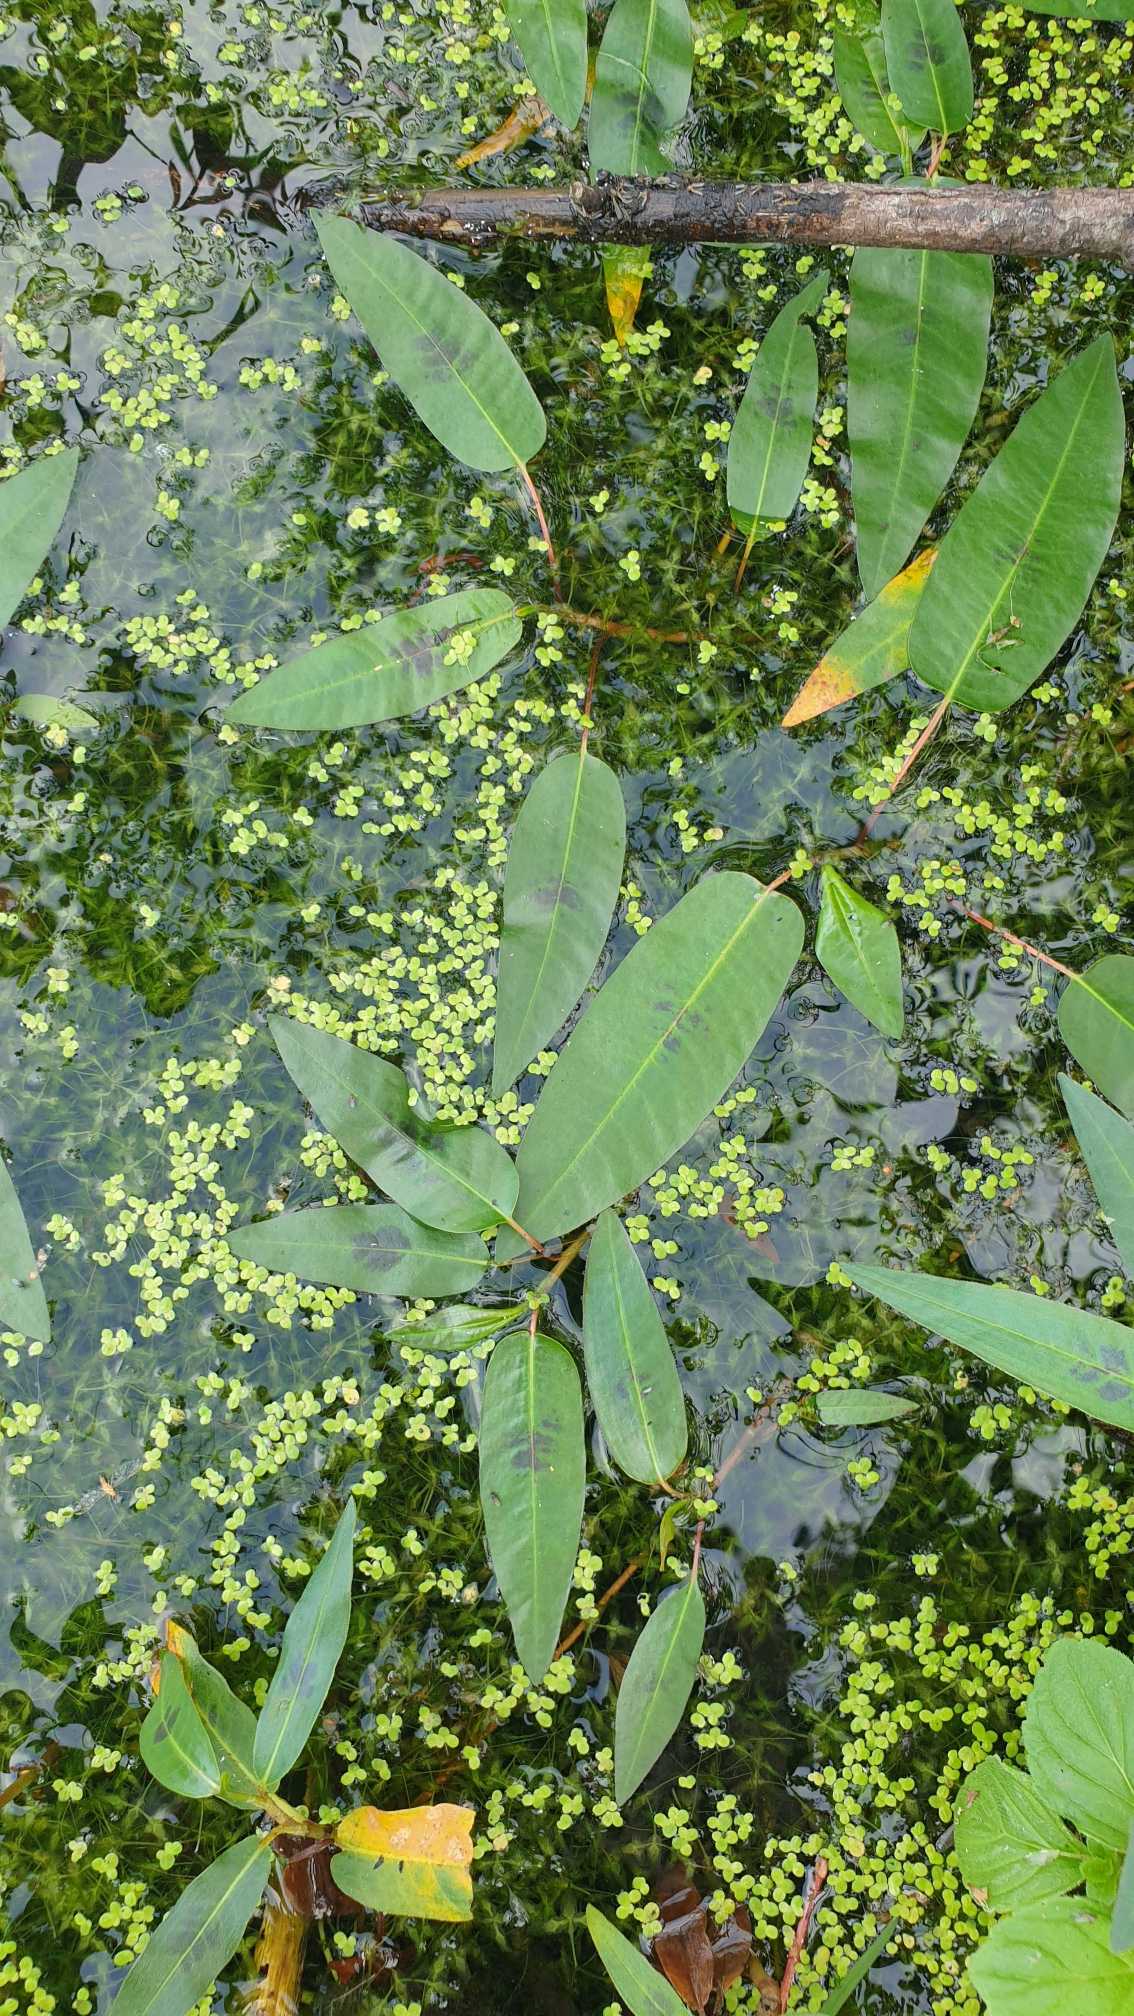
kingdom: Plantae
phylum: Tracheophyta
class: Magnoliopsida
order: Caryophyllales
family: Polygonaceae
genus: Persicaria
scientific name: Persicaria amphibia
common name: Vand-pileurt
